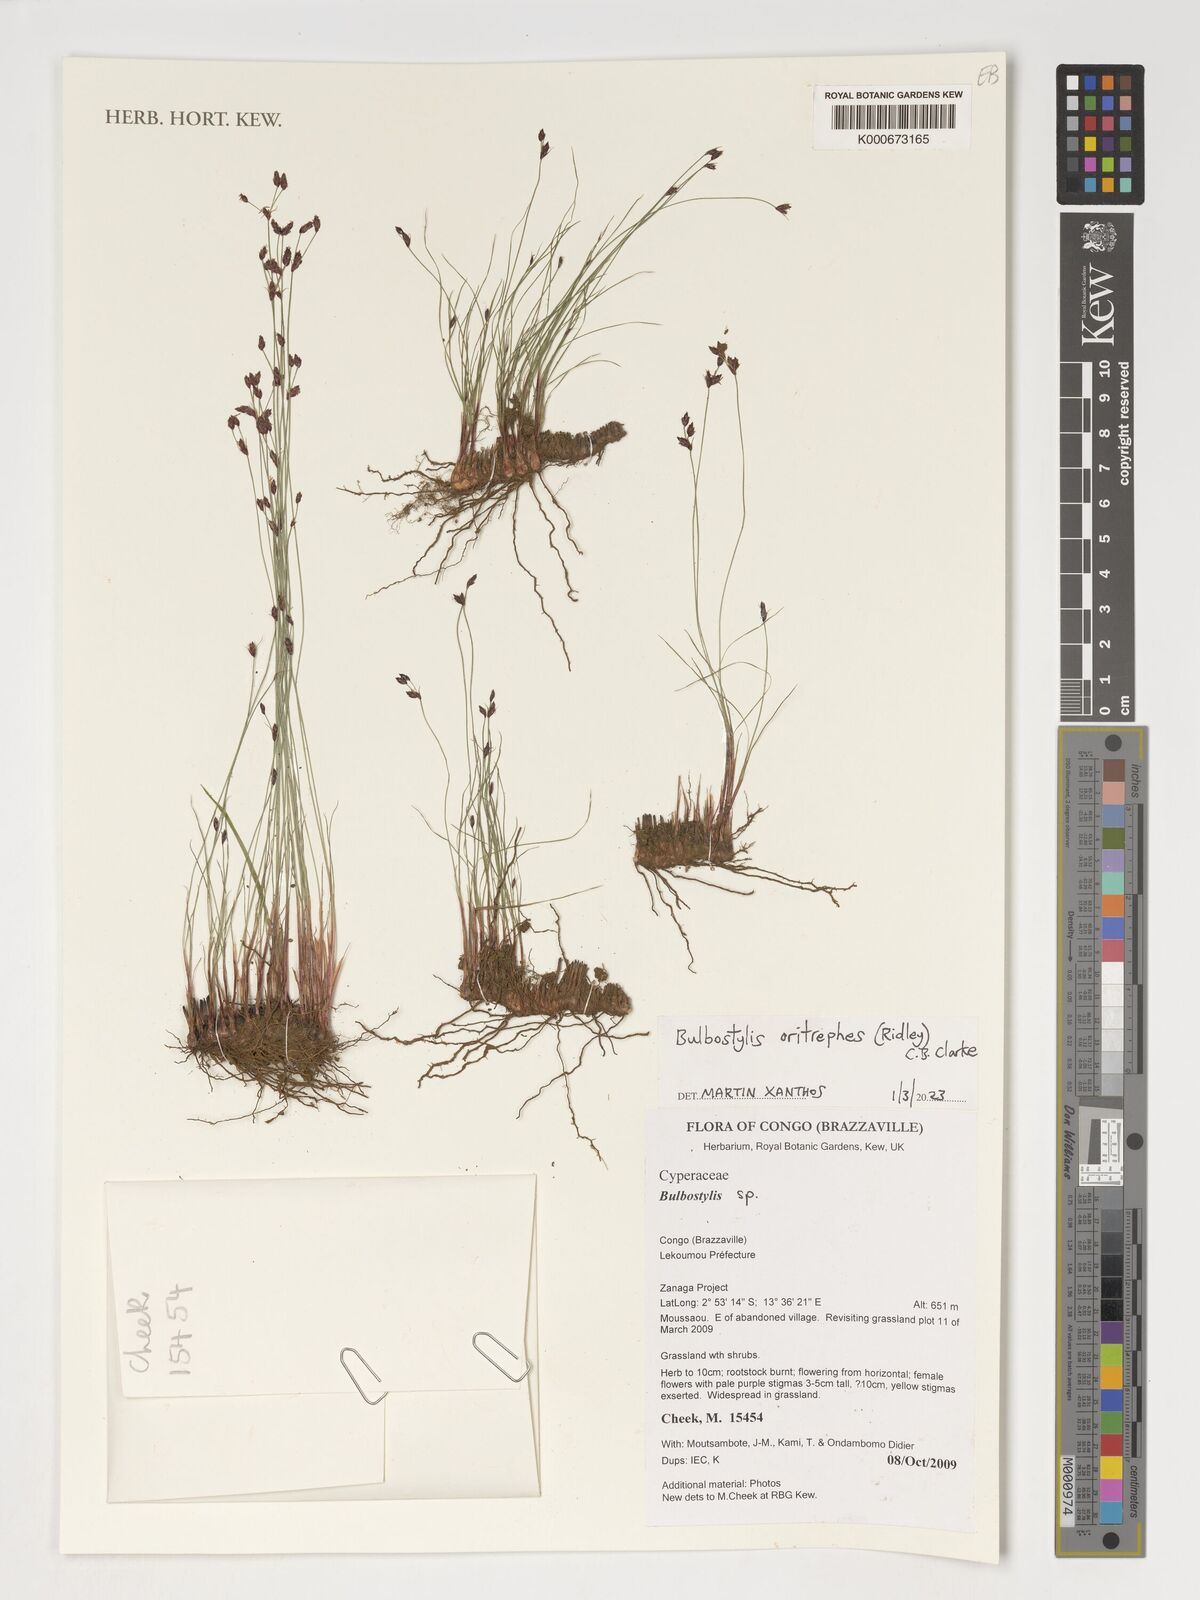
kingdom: Plantae
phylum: Tracheophyta
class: Liliopsida
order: Poales
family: Cyperaceae
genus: Bulbostylis
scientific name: Bulbostylis oritrephes
